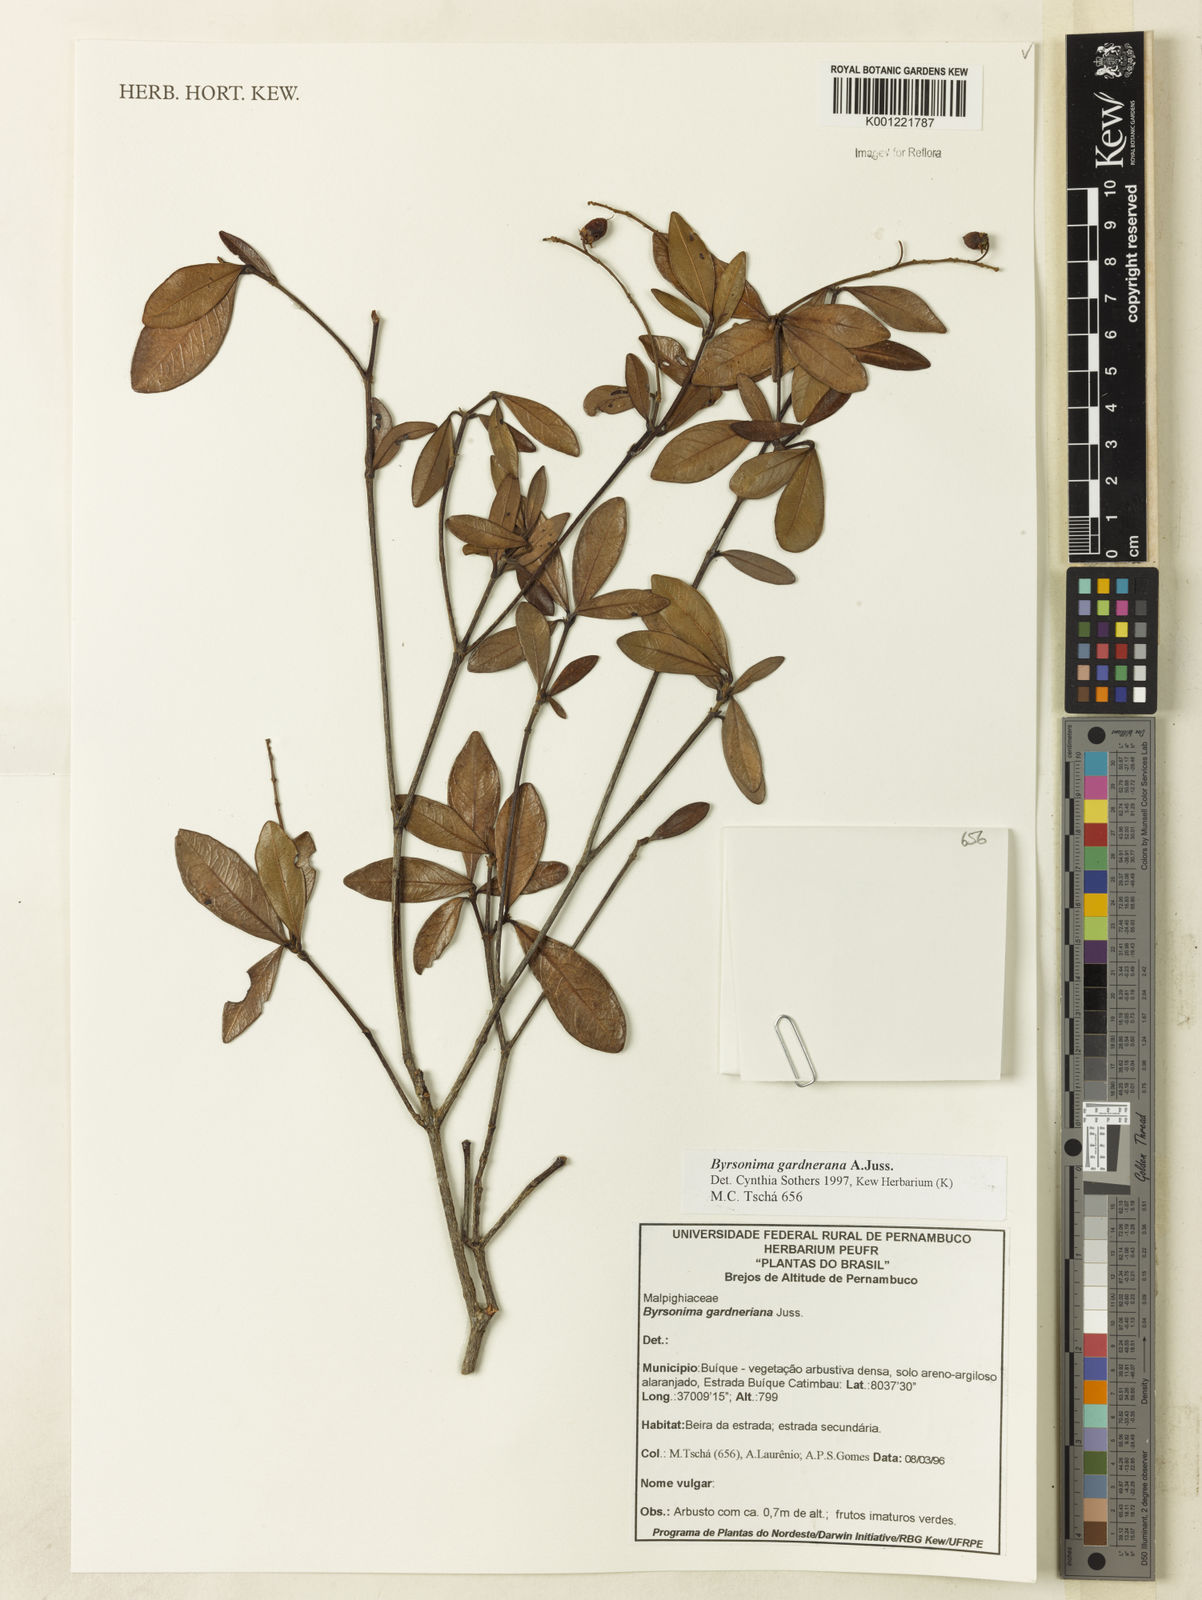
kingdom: Plantae
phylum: Tracheophyta
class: Magnoliopsida
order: Malpighiales
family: Malpighiaceae
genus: Byrsonima
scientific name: Byrsonima gardneriana
